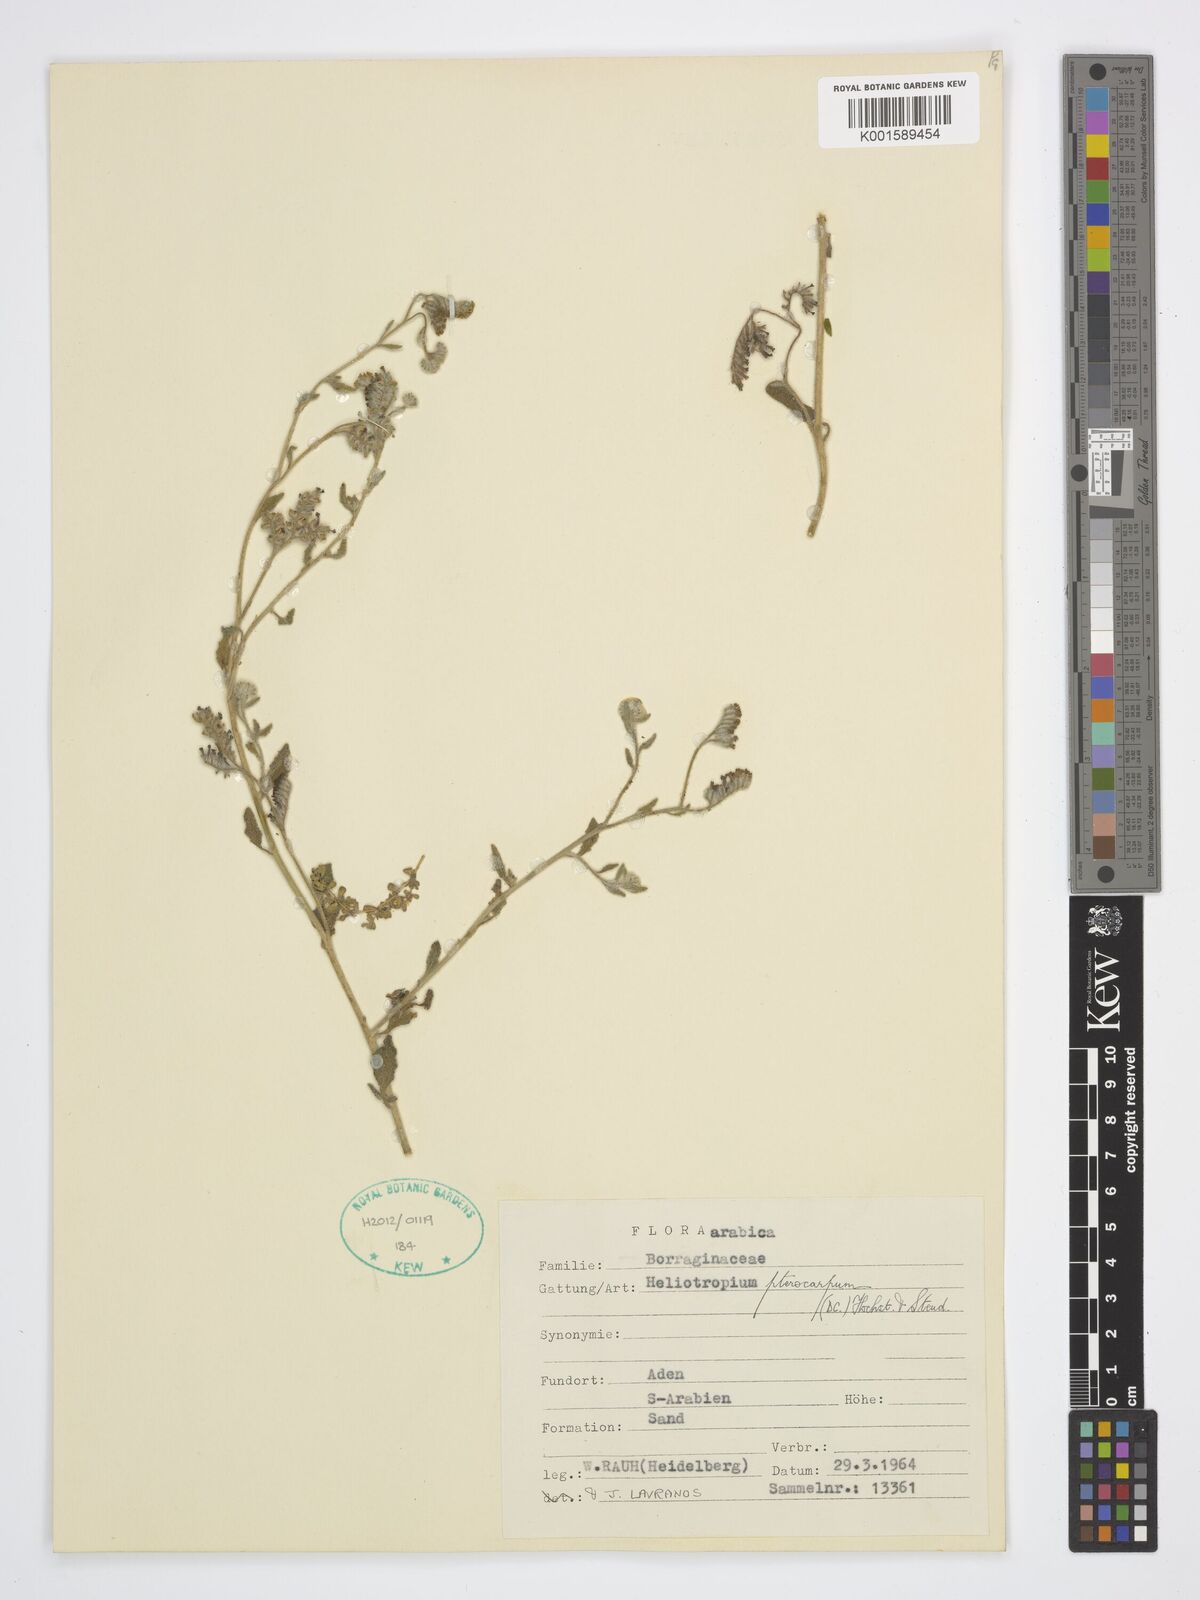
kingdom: Plantae
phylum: Tracheophyta
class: Magnoliopsida
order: Boraginales
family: Heliotropiaceae
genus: Heliotropium
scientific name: Heliotropium pterocarpum
